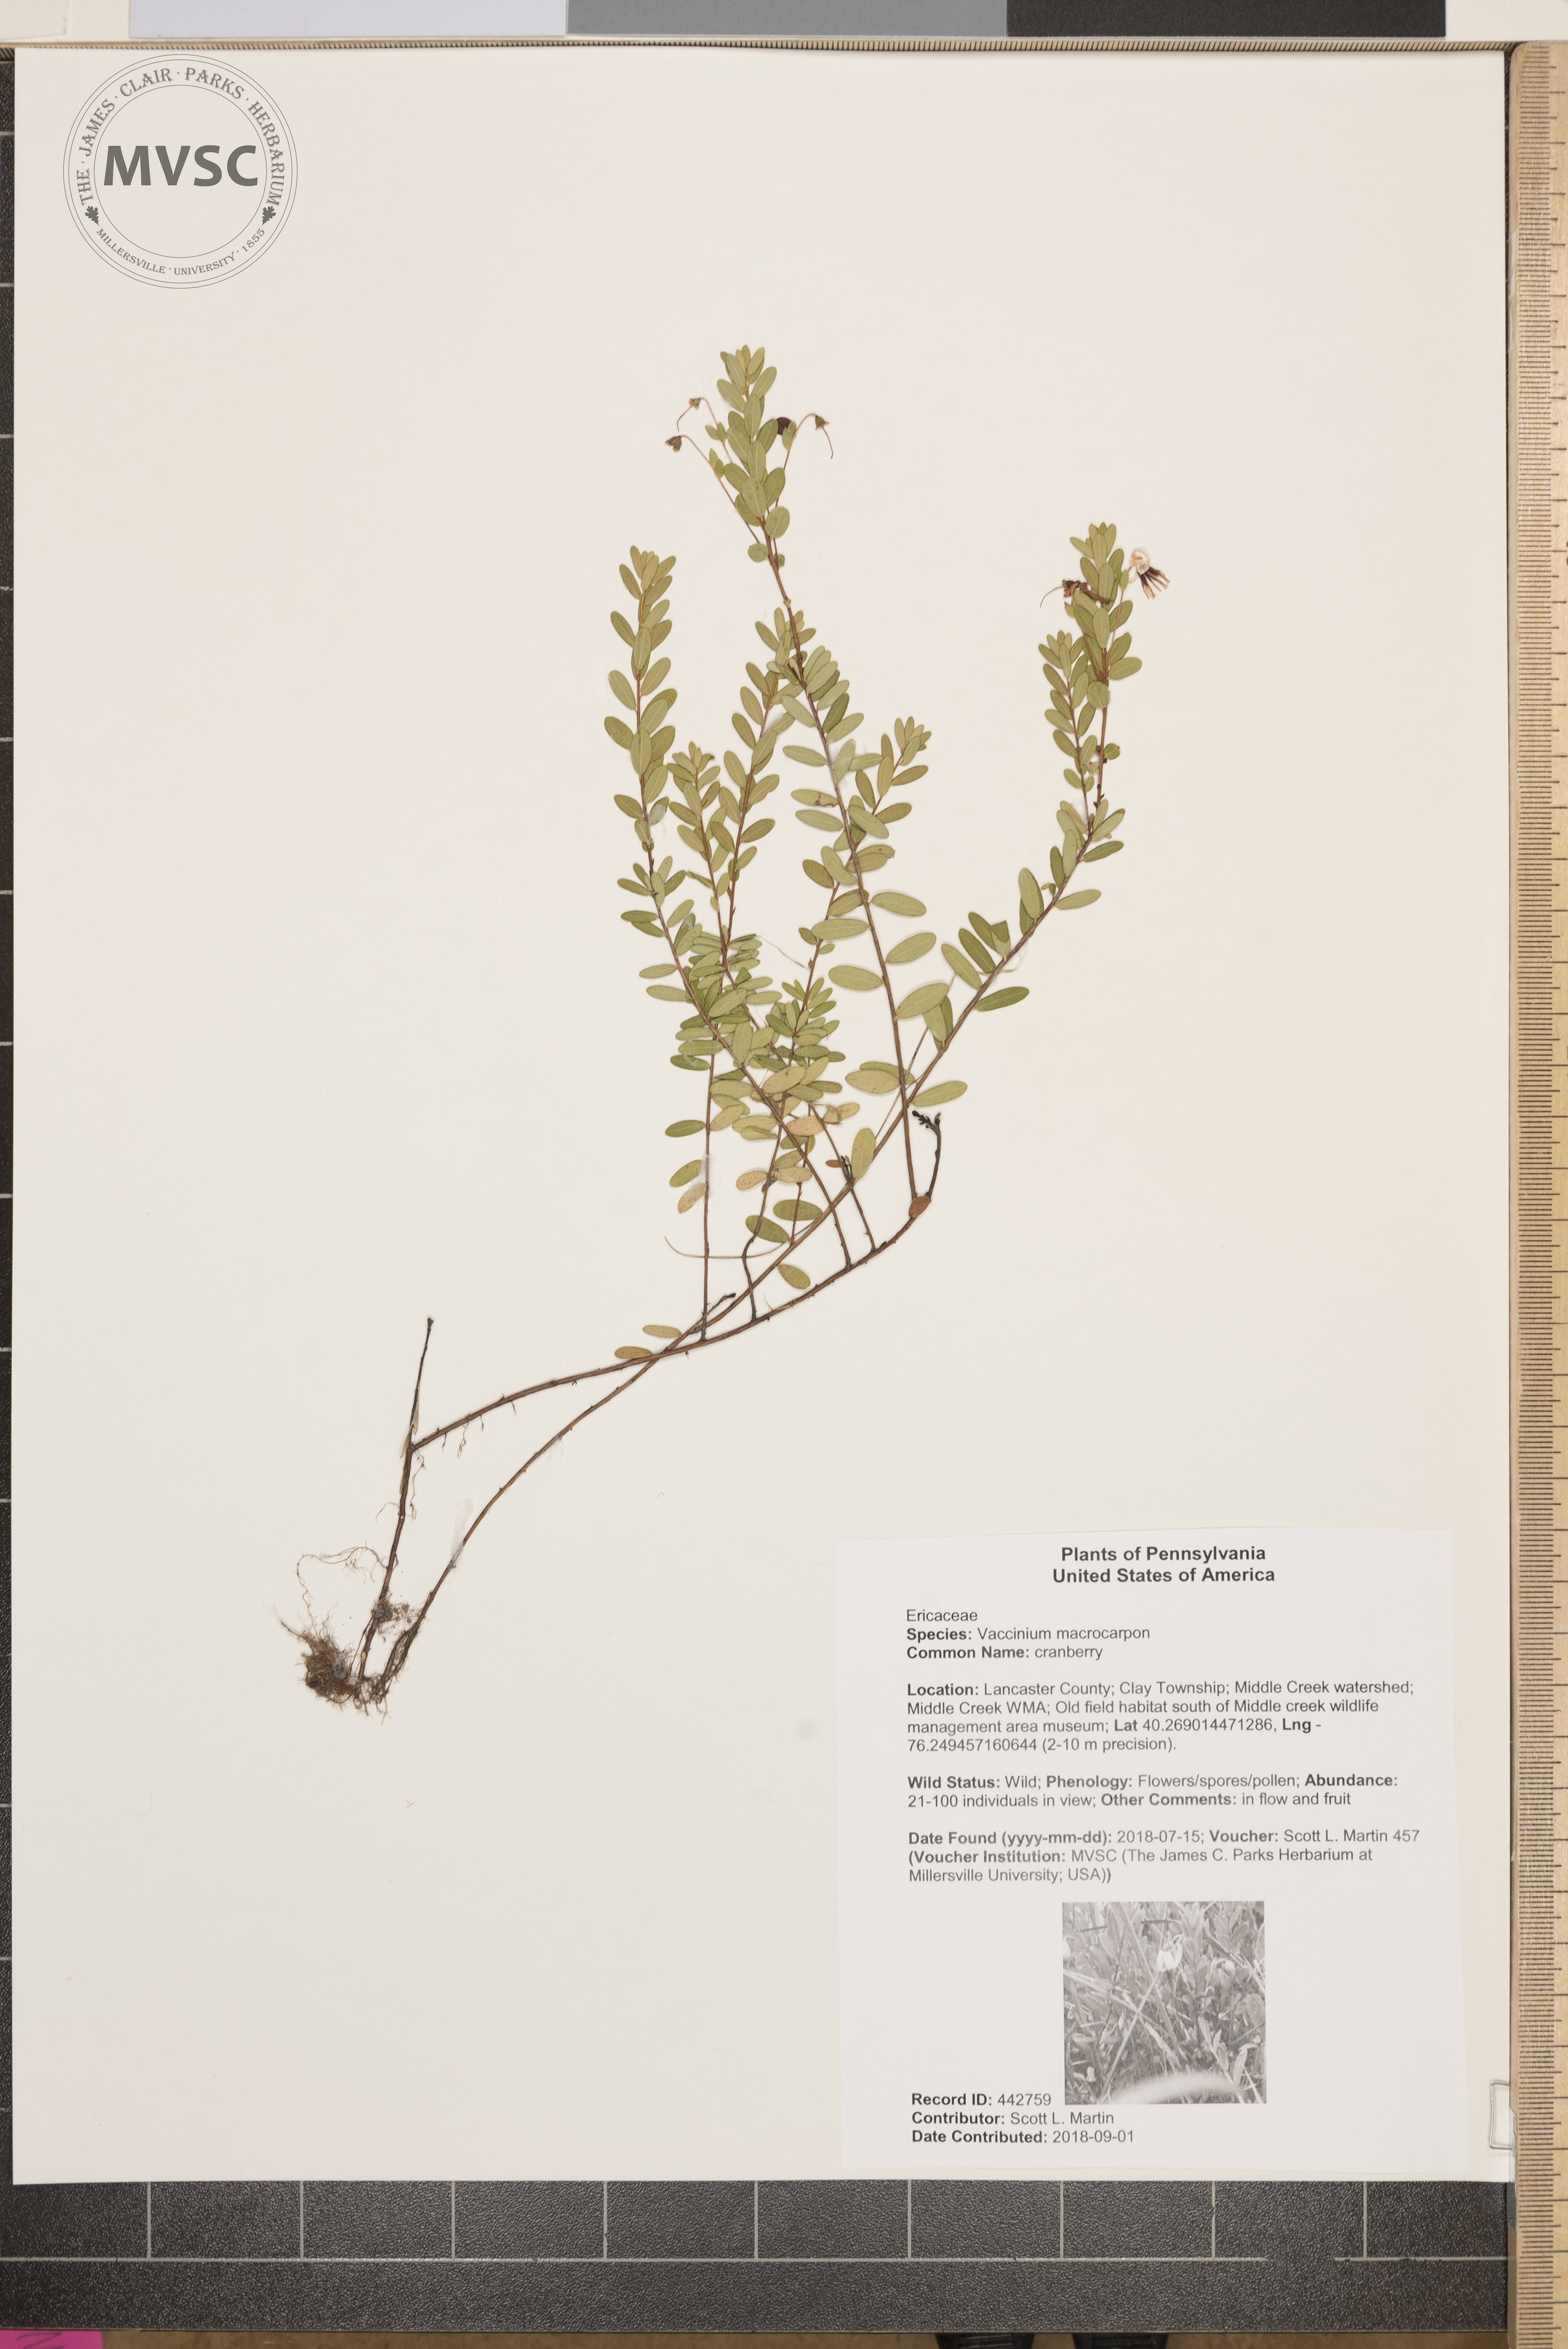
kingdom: Plantae
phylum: Tracheophyta
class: Magnoliopsida
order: Ericales
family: Ericaceae
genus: Vaccinium
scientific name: Vaccinium macrocarpon
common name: cranberry
